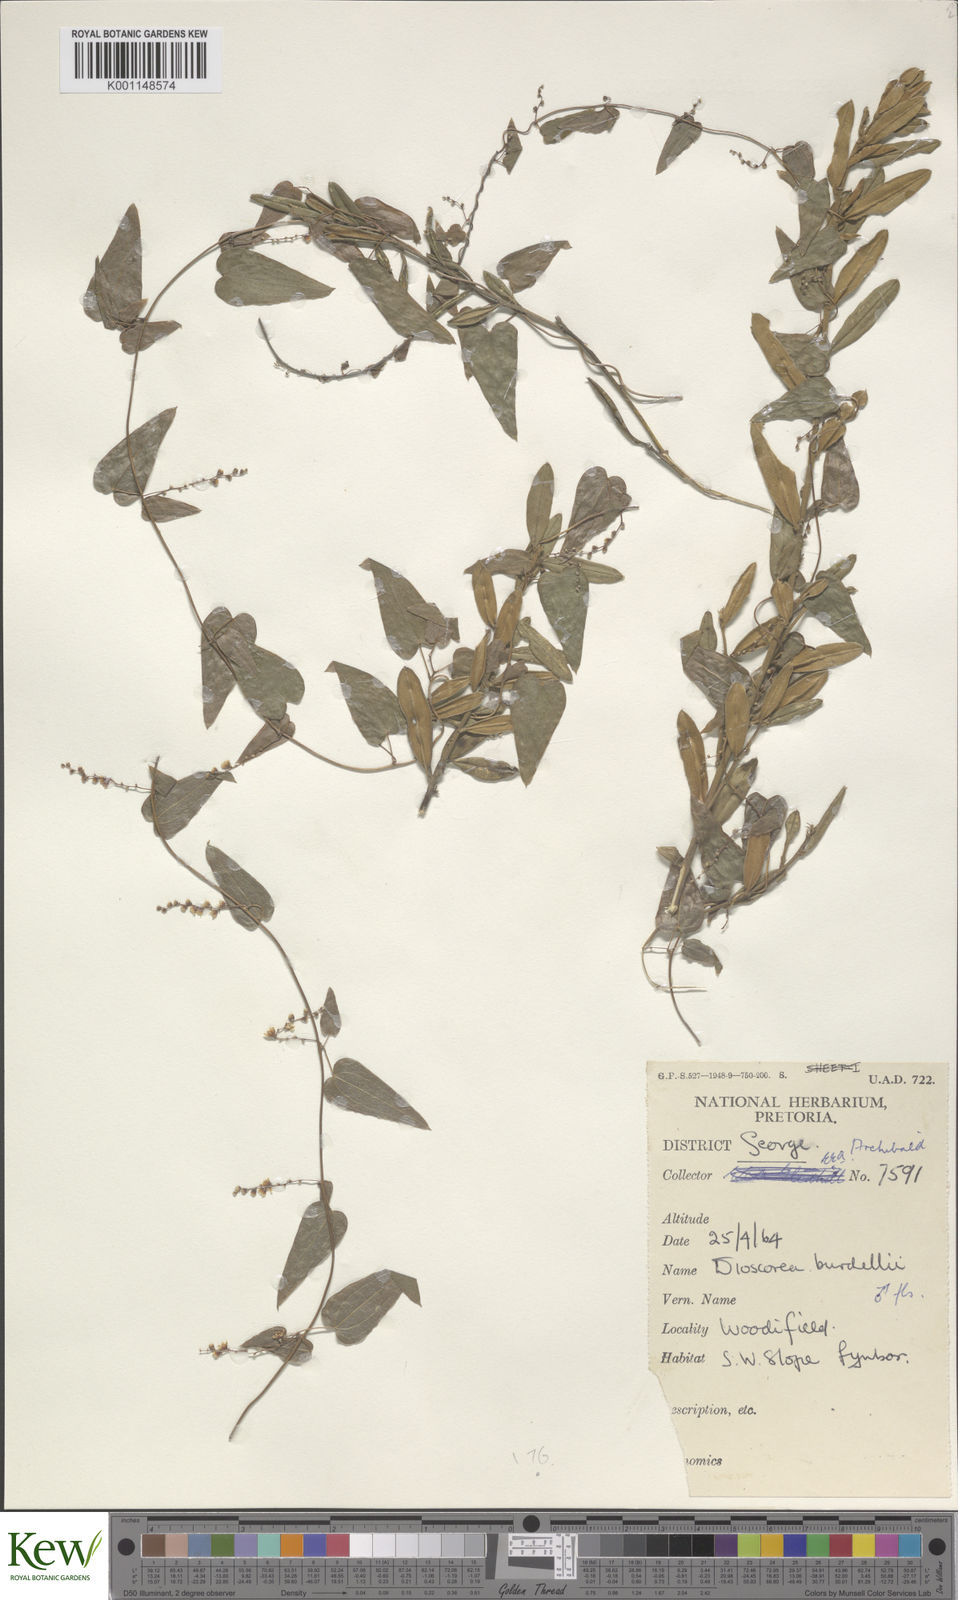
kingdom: Plantae
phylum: Tracheophyta
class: Liliopsida
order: Dioscoreales
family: Dioscoreaceae
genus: Dioscorea
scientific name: Dioscorea burchellii
